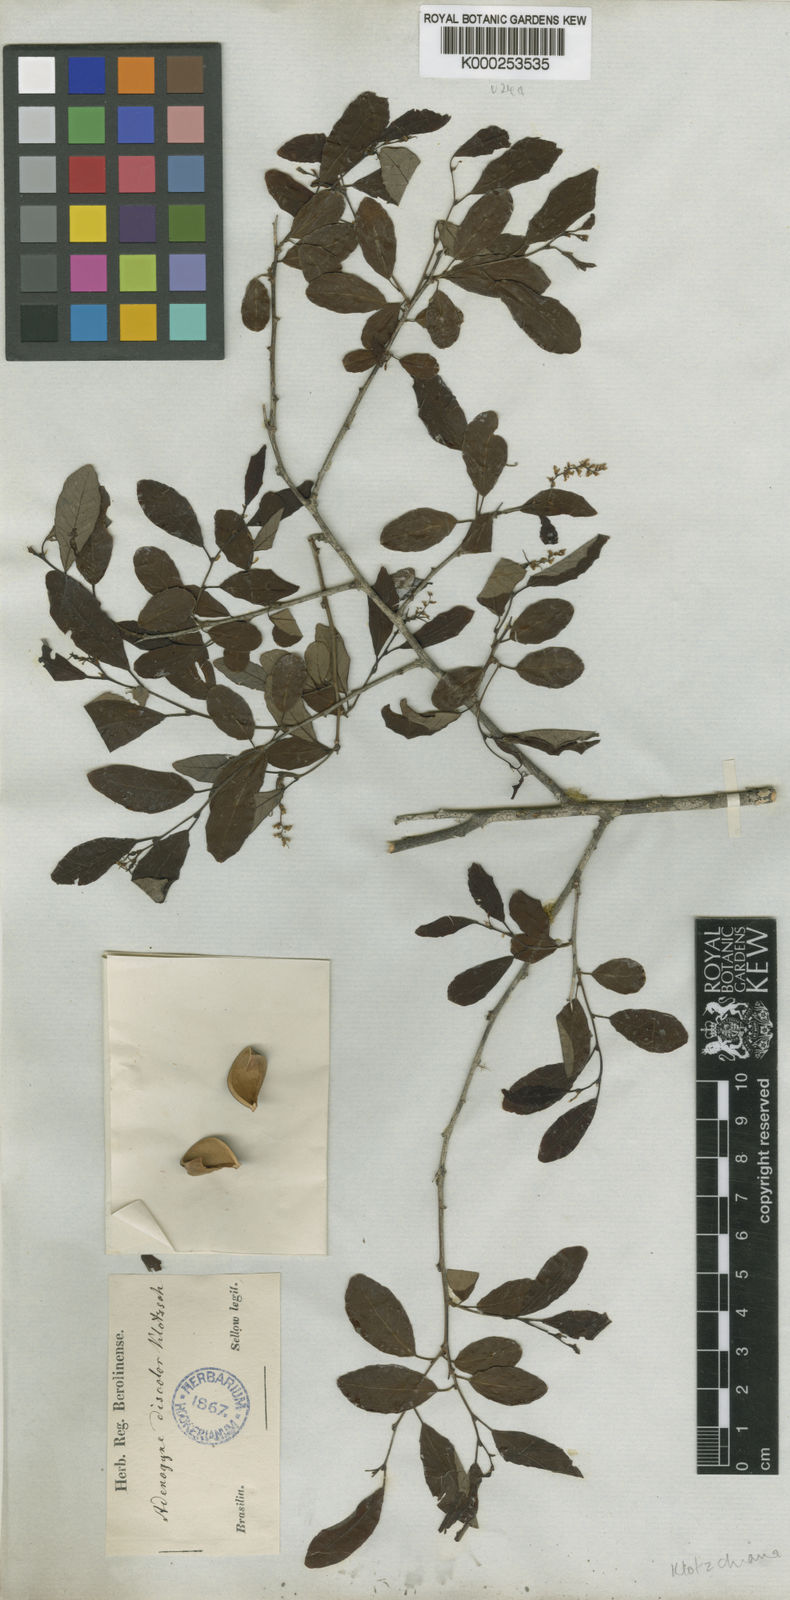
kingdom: Plantae
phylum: Tracheophyta
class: Magnoliopsida
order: Malpighiales
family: Euphorbiaceae
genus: Sebastiania
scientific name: Sebastiania
